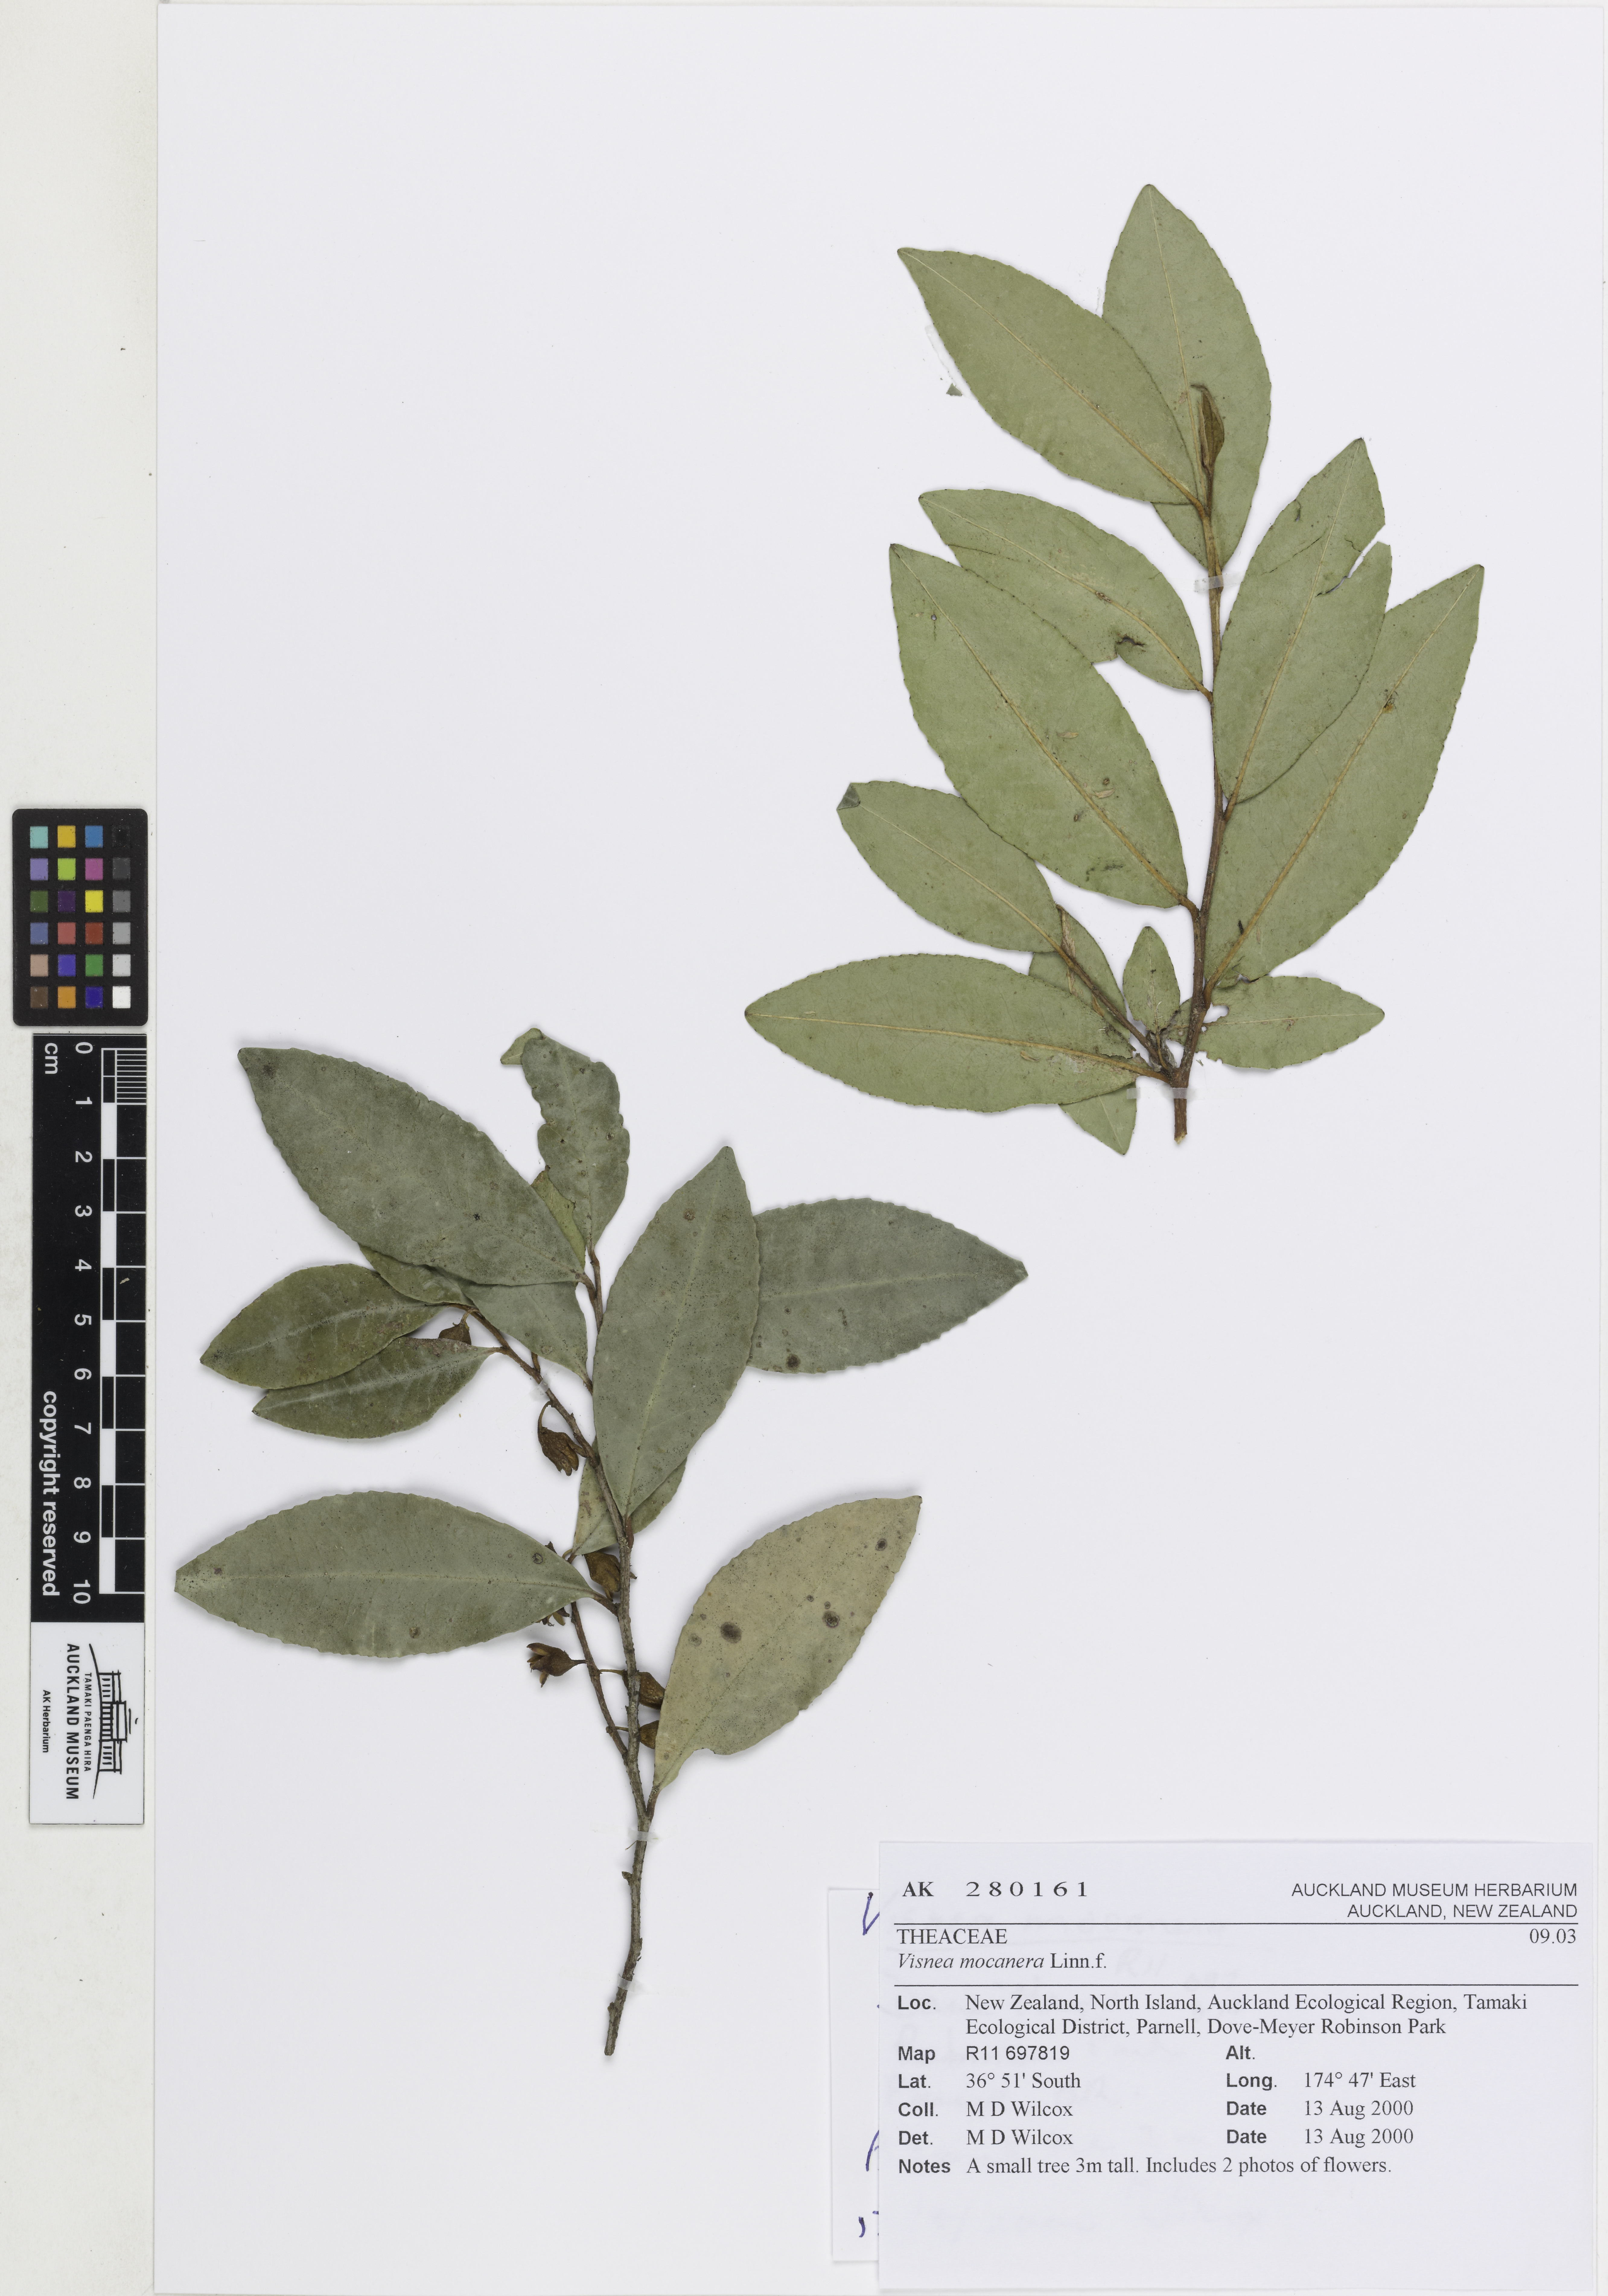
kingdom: Plantae
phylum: Tracheophyta
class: Magnoliopsida
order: Ericales
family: Pentaphylacaceae
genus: Visnea
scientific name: Visnea mocanera
